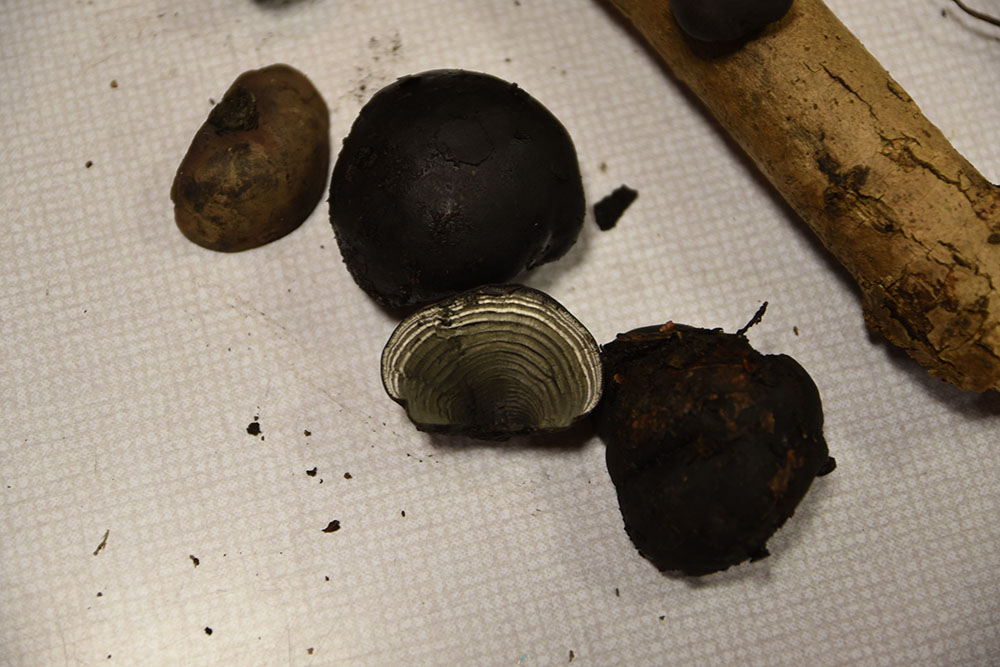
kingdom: Fungi
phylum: Ascomycota
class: Sordariomycetes
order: Xylariales
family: Hypoxylaceae
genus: Daldinia
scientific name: Daldinia concentrica
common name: Cramp balls
